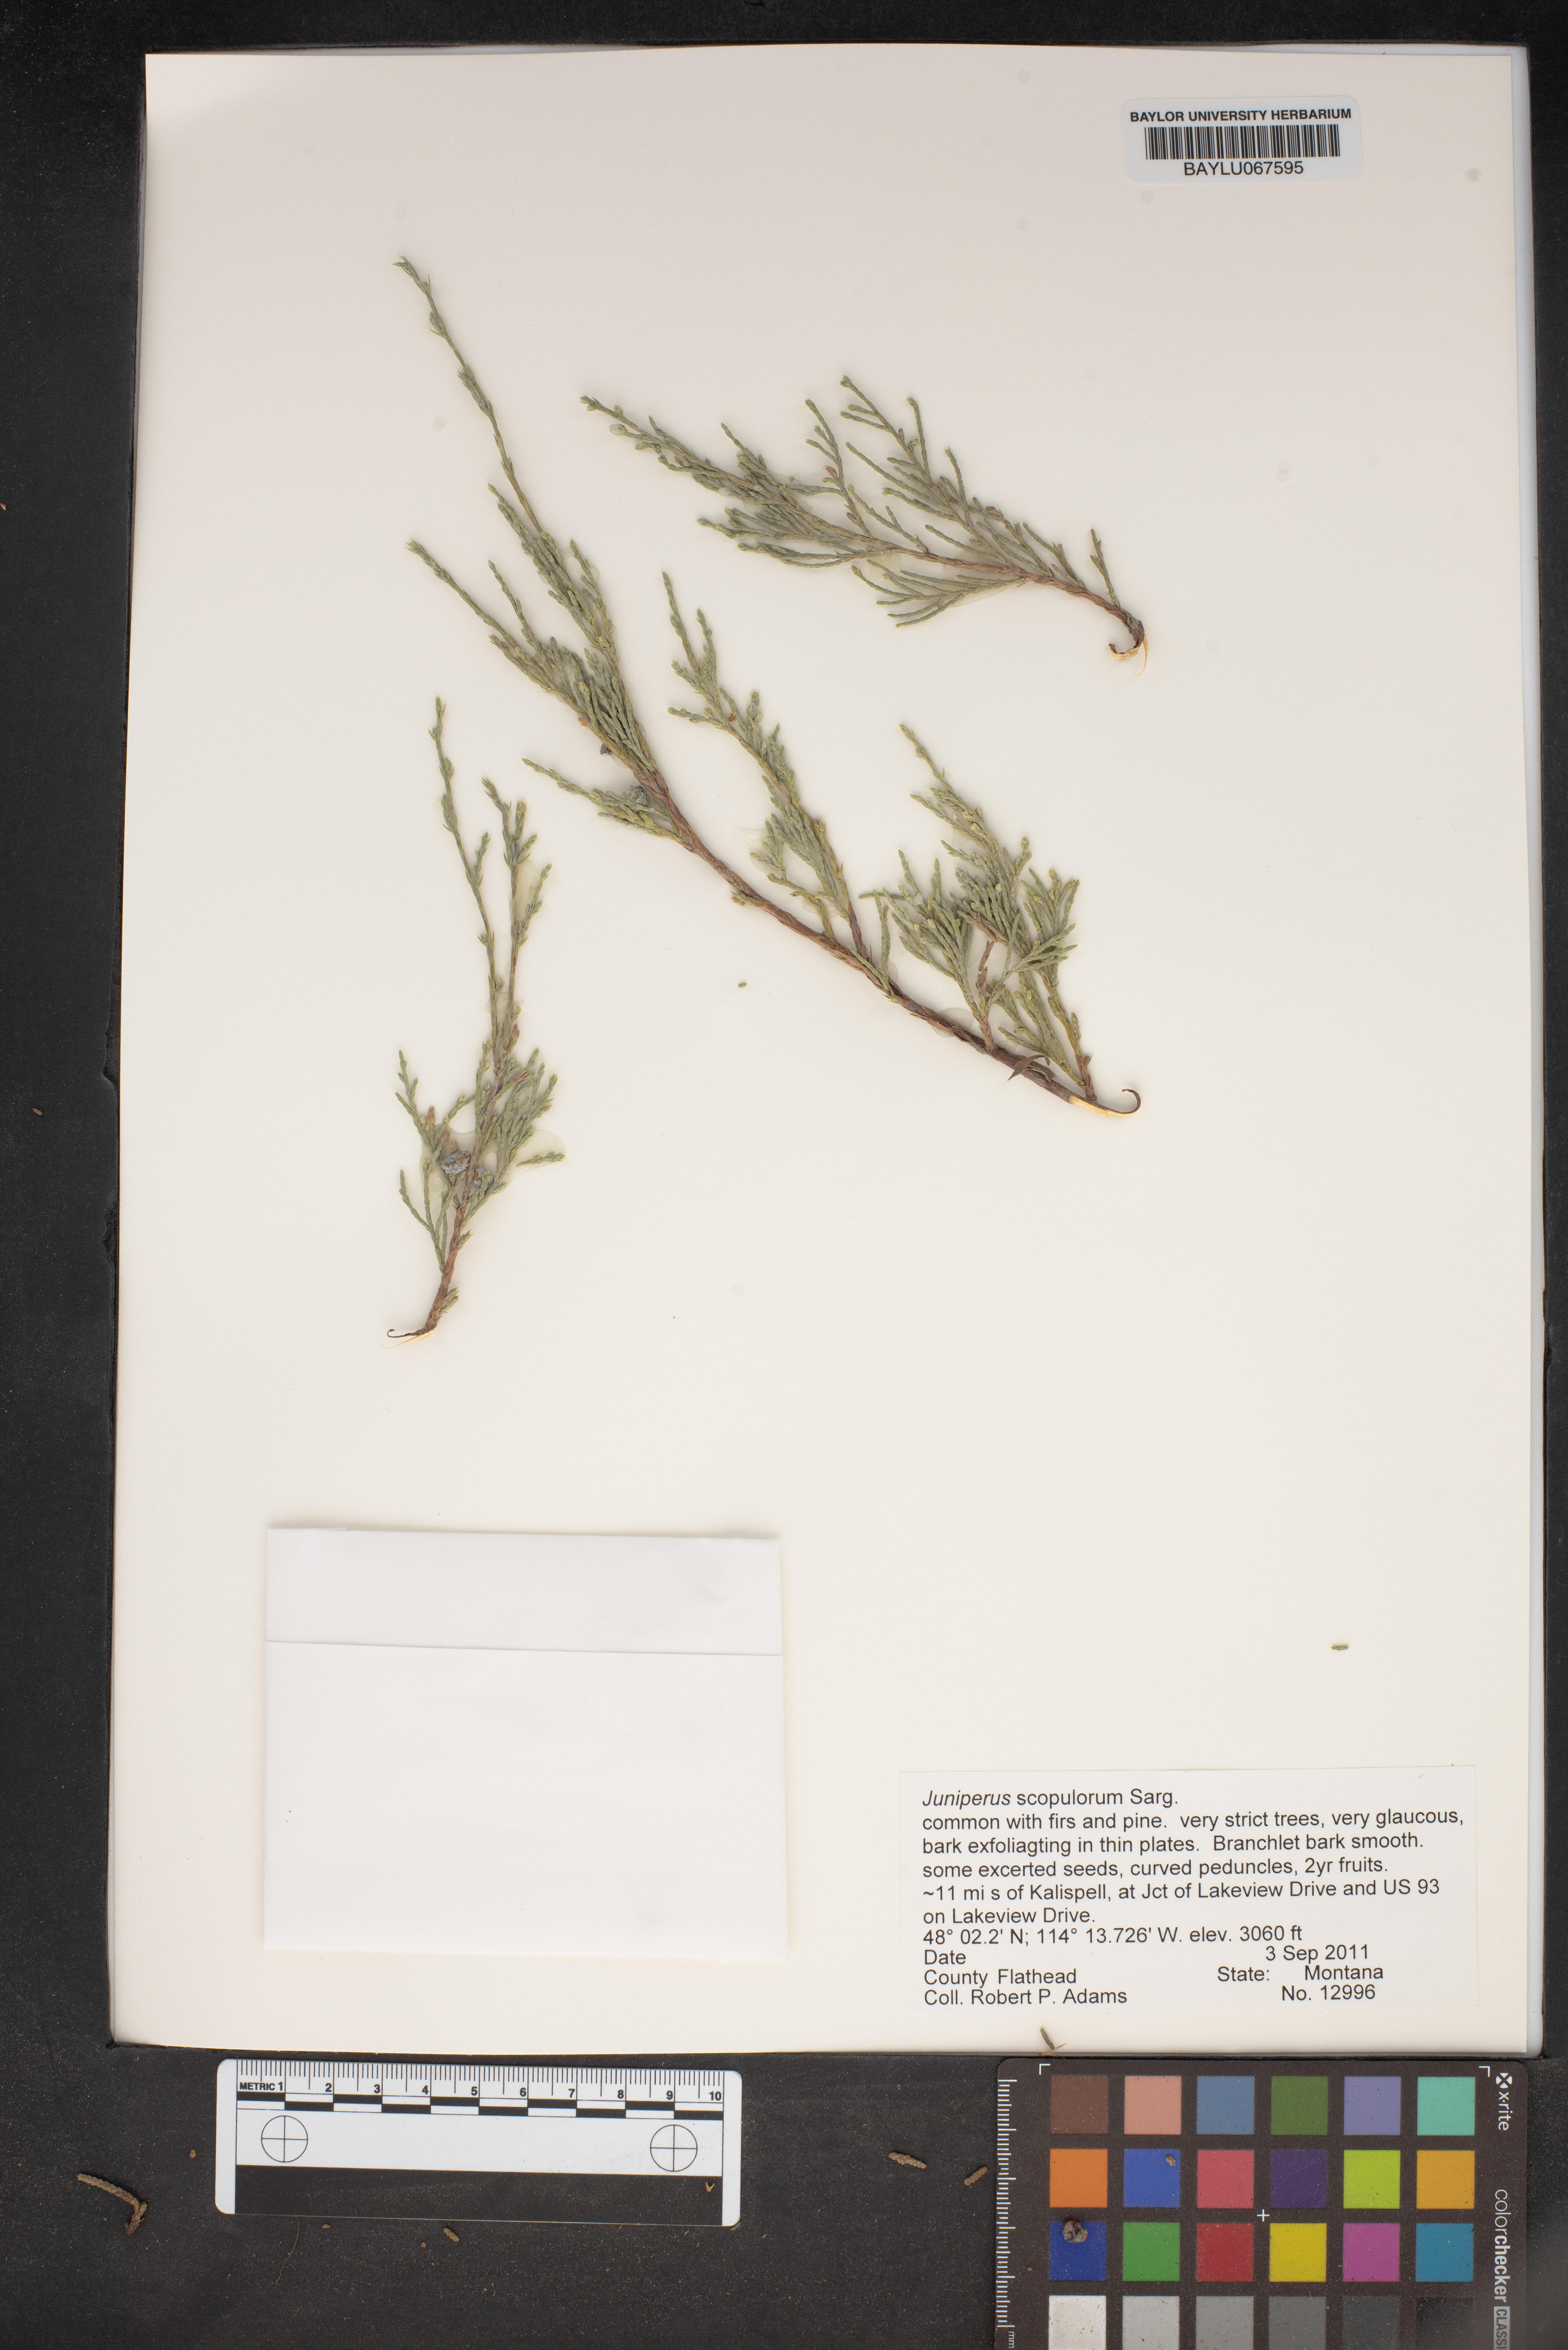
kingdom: Plantae
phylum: Tracheophyta
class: Pinopsida
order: Pinales
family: Cupressaceae
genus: Juniperus
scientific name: Juniperus scopulorum
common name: Rocky mountain juniper
